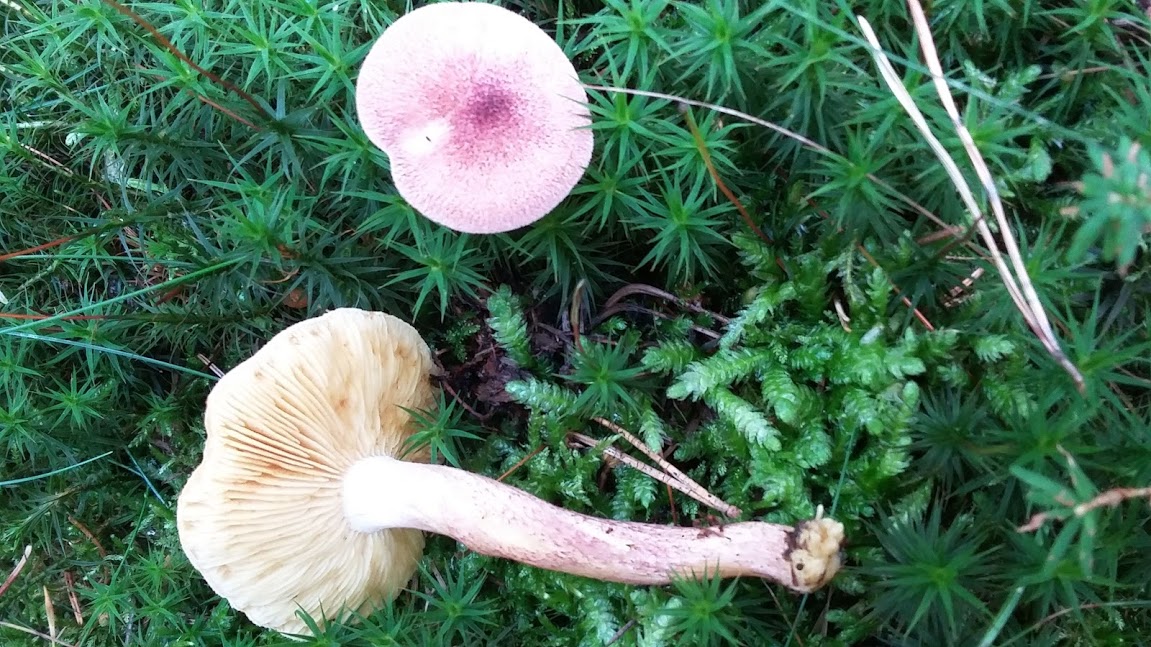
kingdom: Fungi
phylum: Basidiomycota
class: Agaricomycetes
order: Agaricales
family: Tricholomataceae
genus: Tricholomopsis
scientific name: Tricholomopsis rutilans
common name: purpur-væbnerhat
